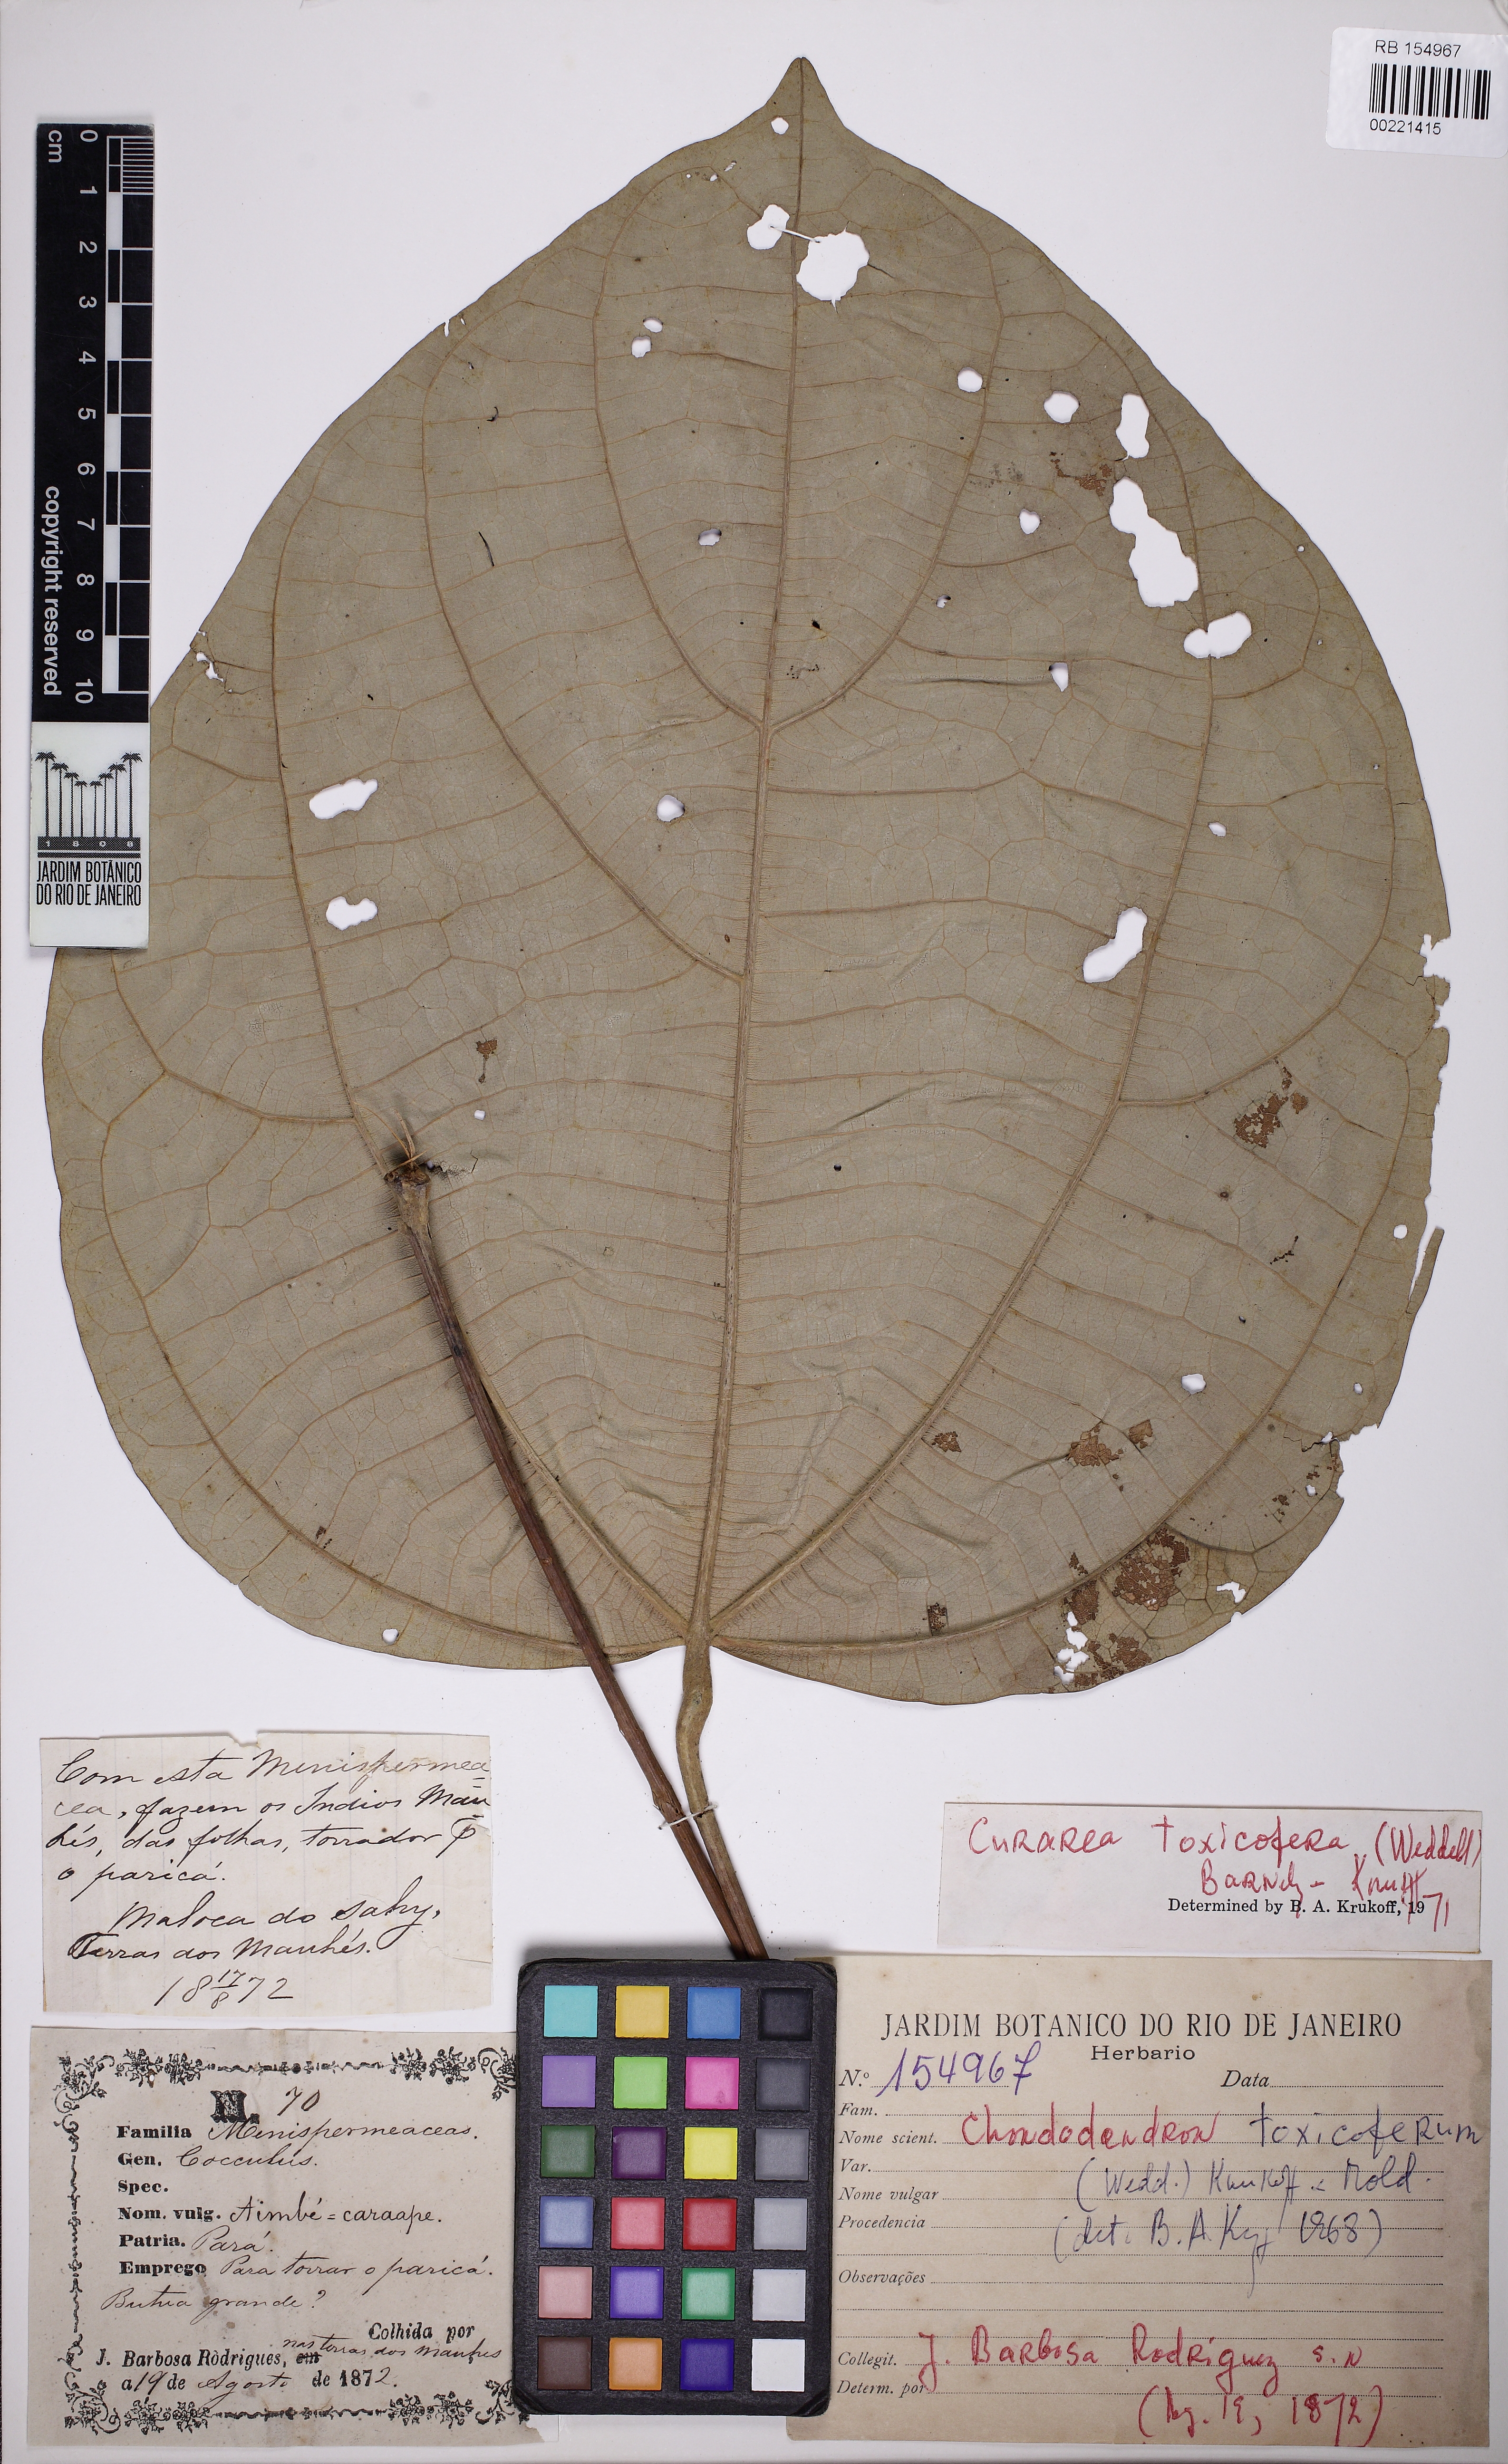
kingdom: Plantae
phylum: Tracheophyta
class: Magnoliopsida
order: Ranunculales
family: Menispermaceae
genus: Curarea
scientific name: Curarea toxicofera
